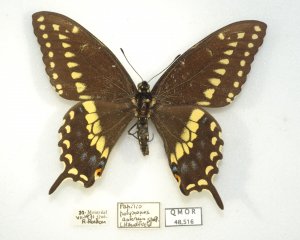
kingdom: Animalia
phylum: Arthropoda
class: Insecta
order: Lepidoptera
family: Papilionidae
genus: Papilio
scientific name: Papilio polyxenes
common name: Black Swallowtail
